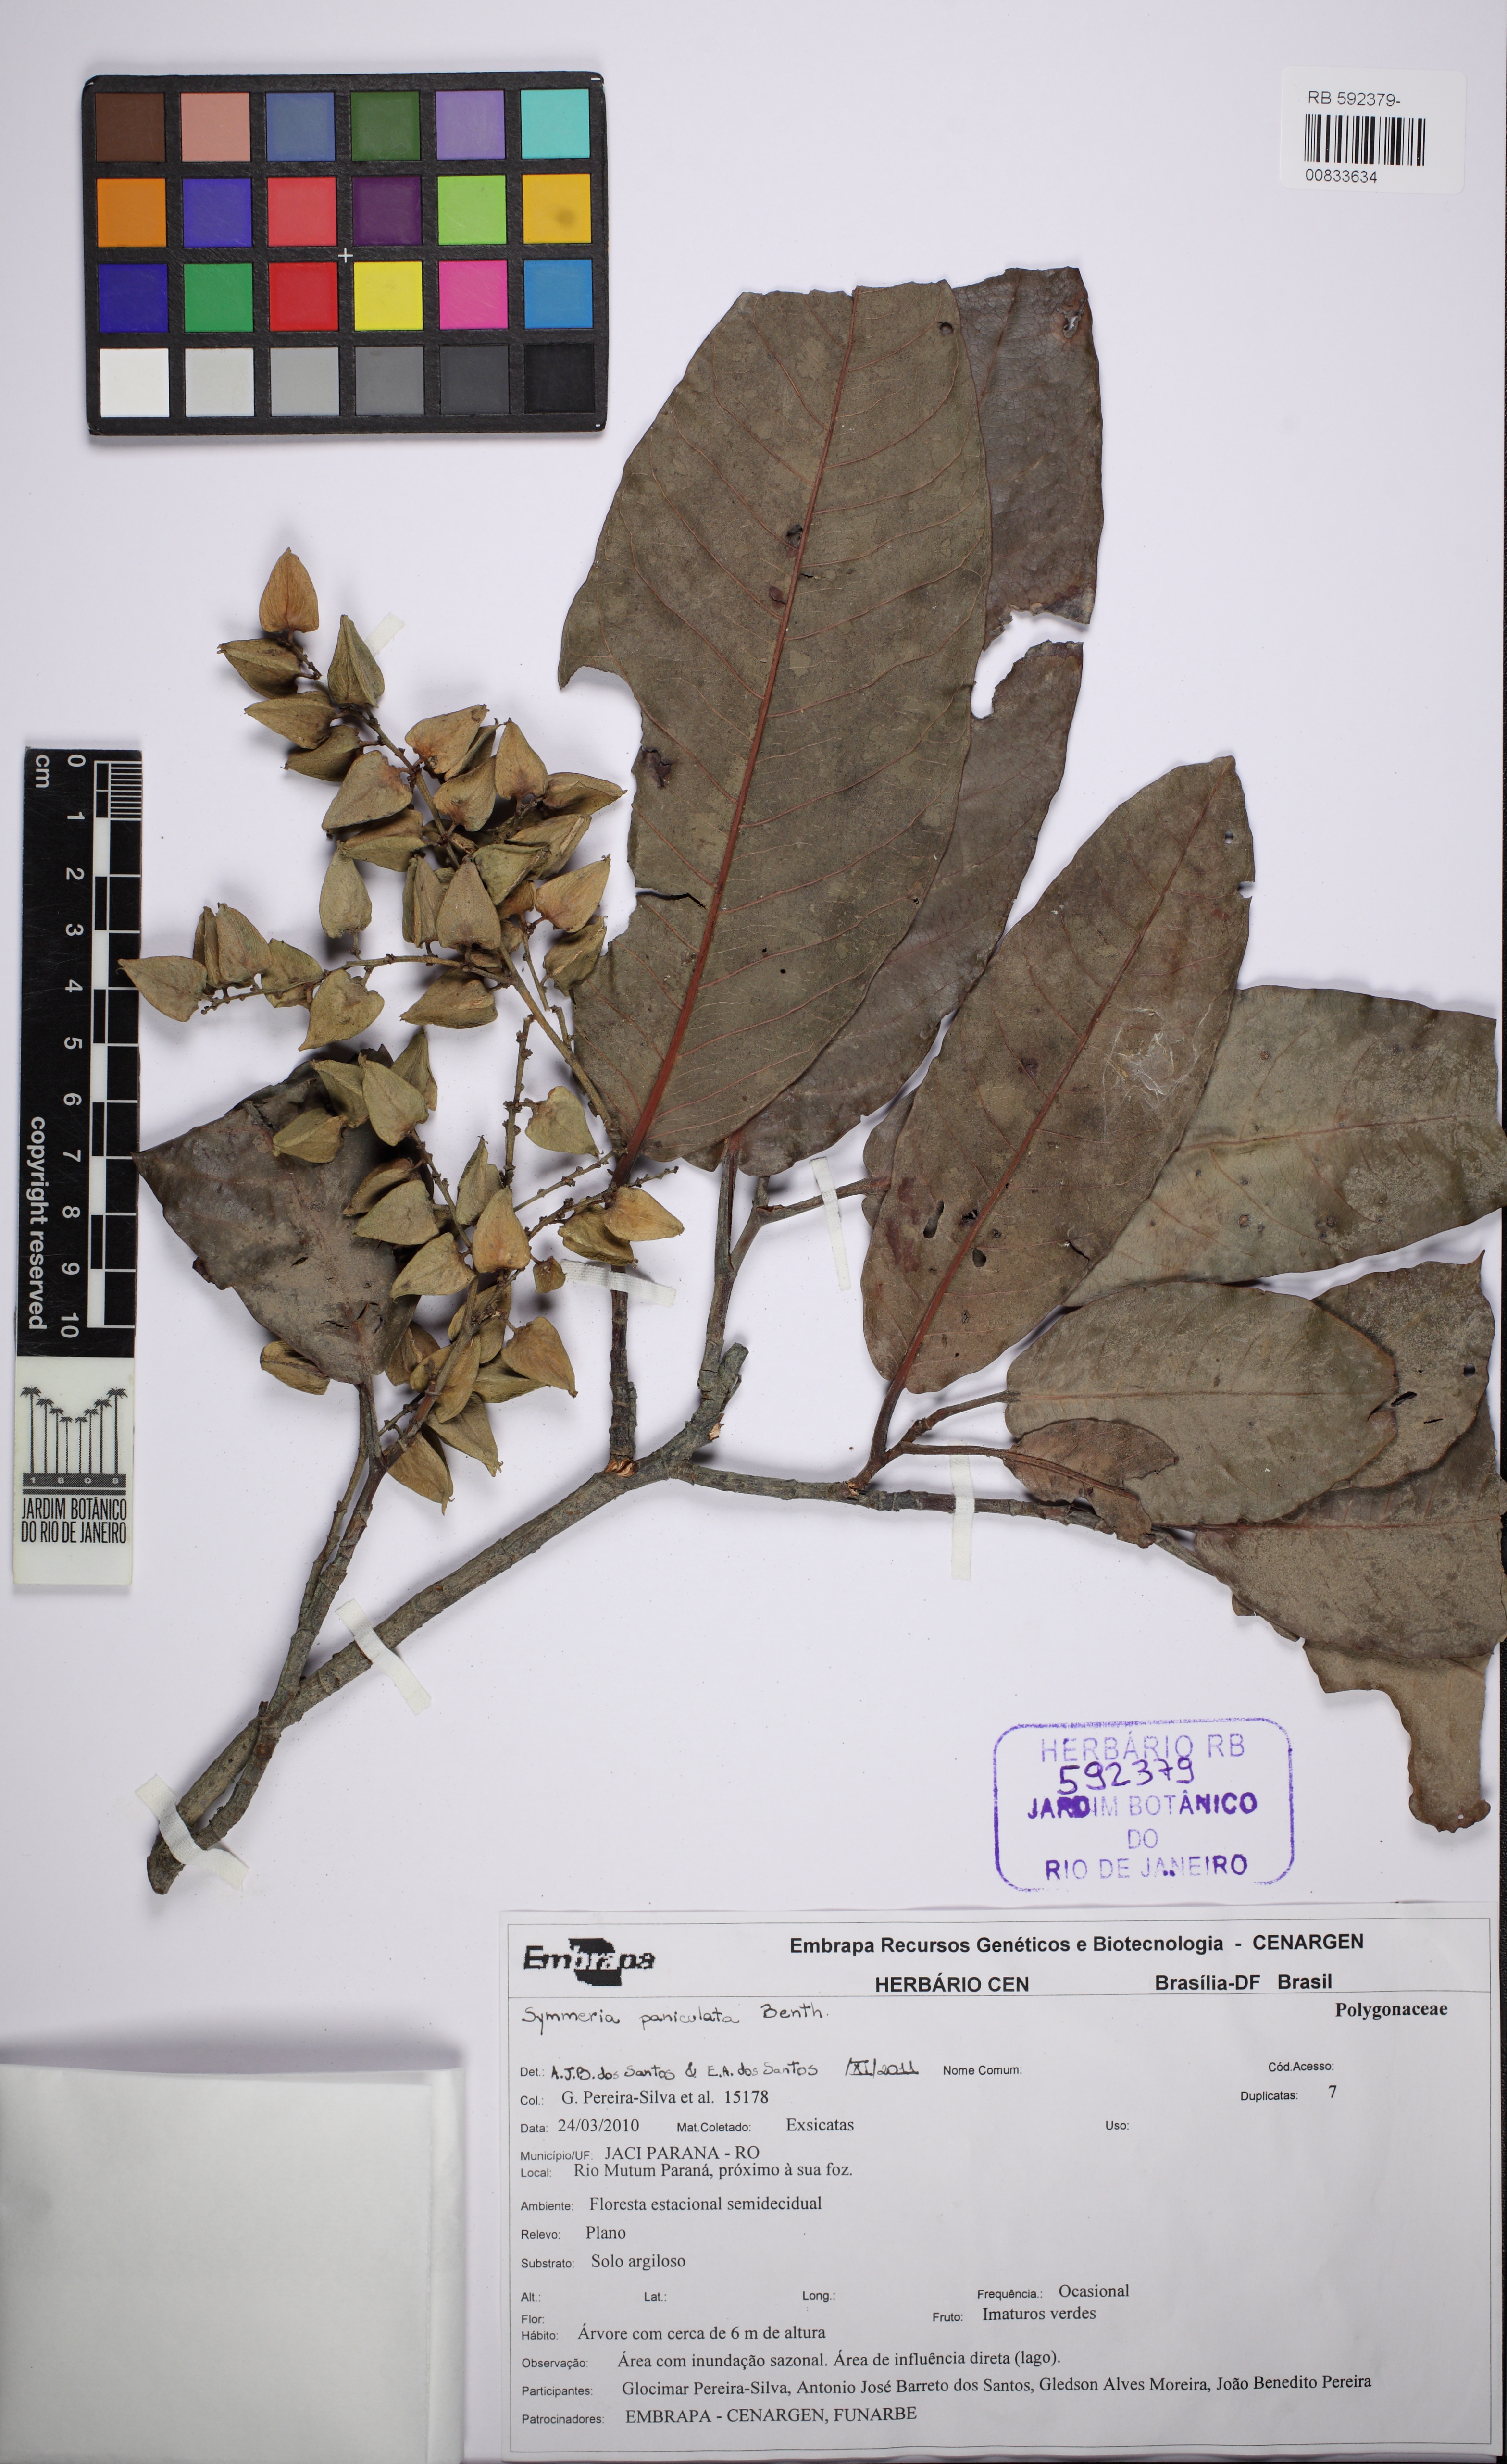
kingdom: Plantae
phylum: Tracheophyta
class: Magnoliopsida
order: Caryophyllales
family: Polygonaceae
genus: Symmeria
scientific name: Symmeria paniculata
